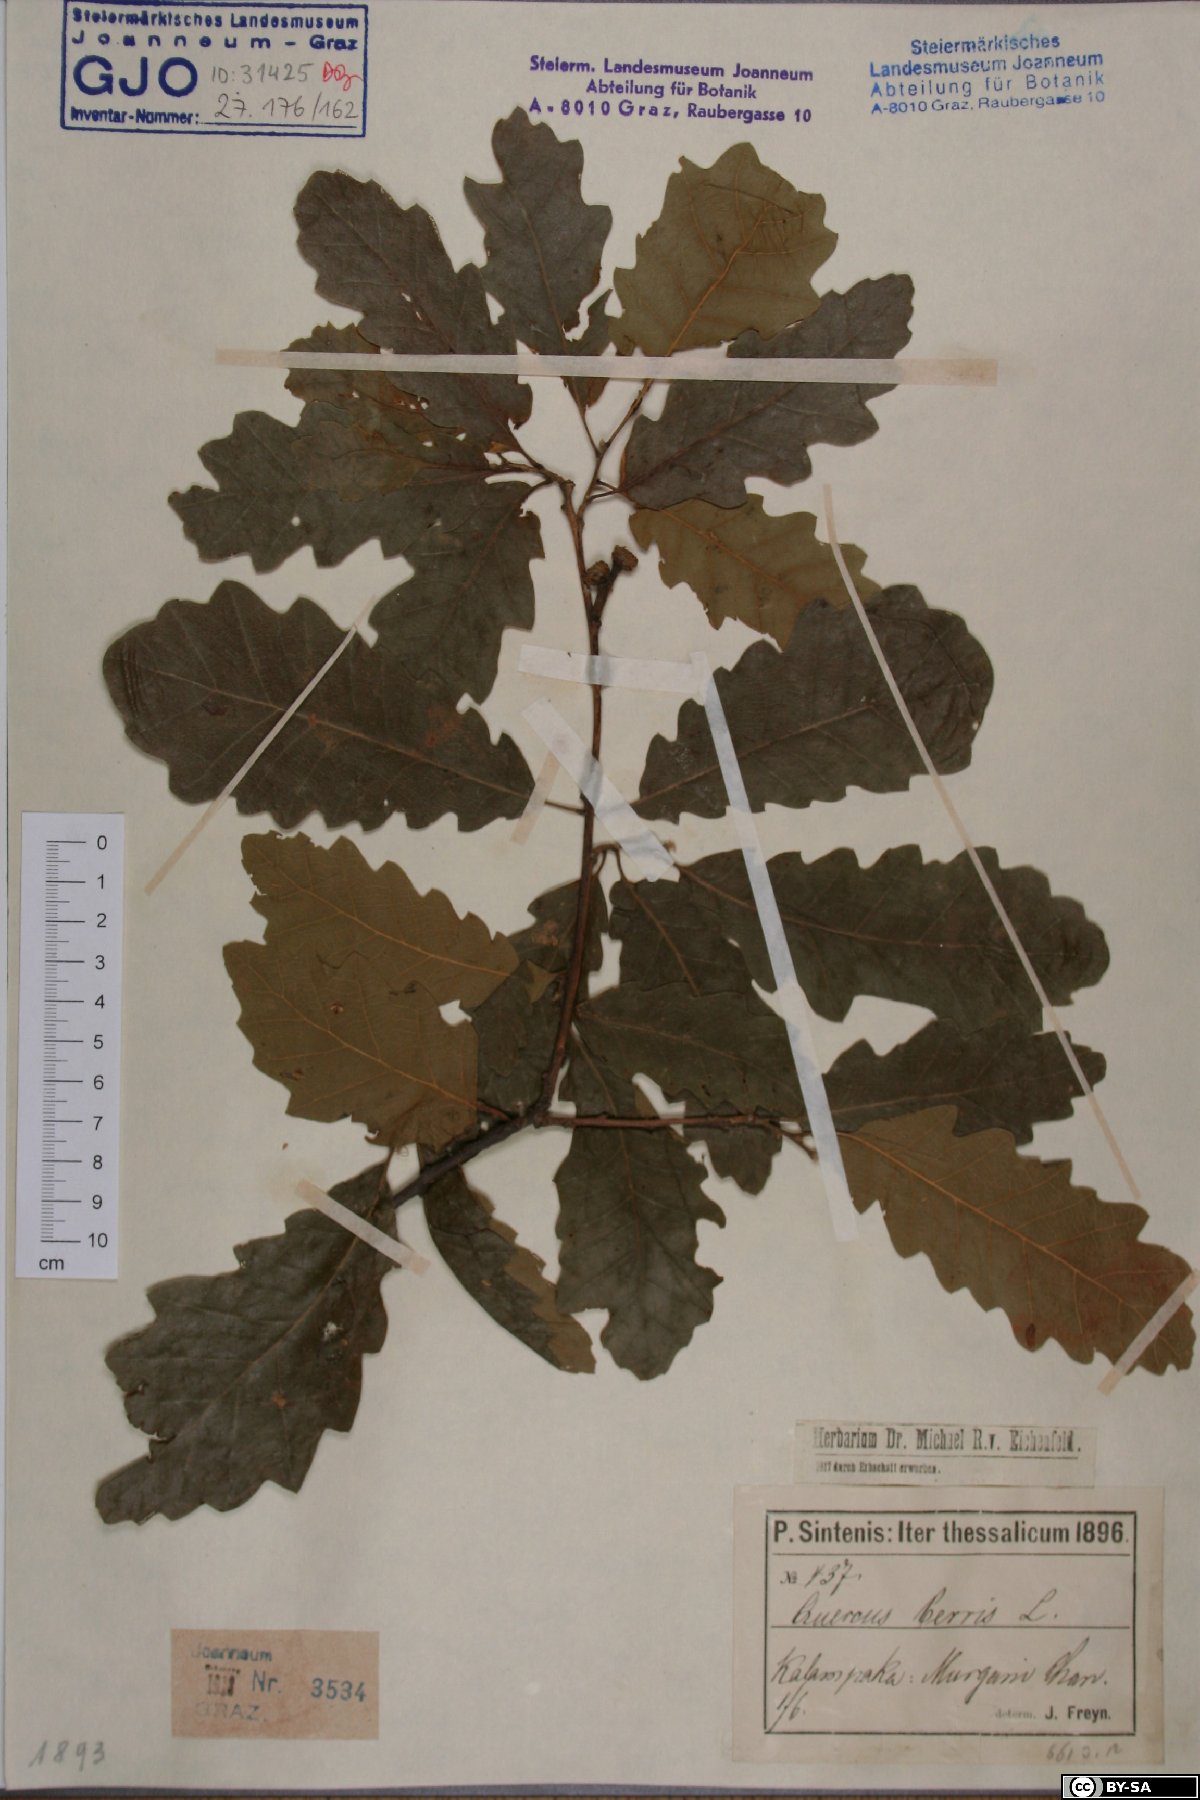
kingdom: Plantae
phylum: Tracheophyta
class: Magnoliopsida
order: Fagales
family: Fagaceae
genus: Quercus
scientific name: Quercus cerris
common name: Turkey oak
